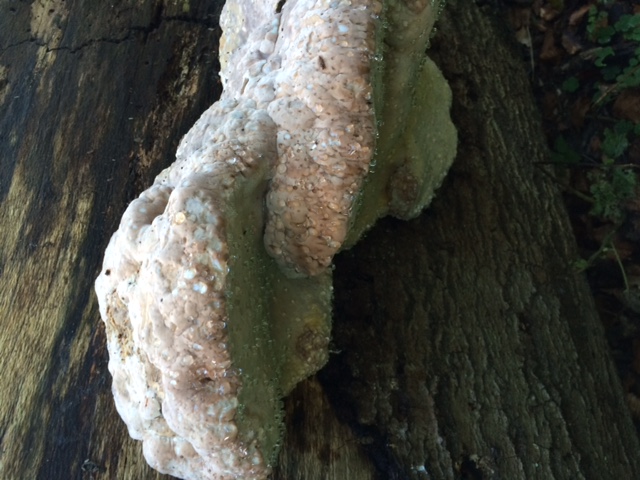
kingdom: Fungi
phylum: Basidiomycota
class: Agaricomycetes
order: Polyporales
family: Fomitopsidaceae
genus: Fomitopsis
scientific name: Fomitopsis pinicola
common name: randbæltet hovporesvamp
